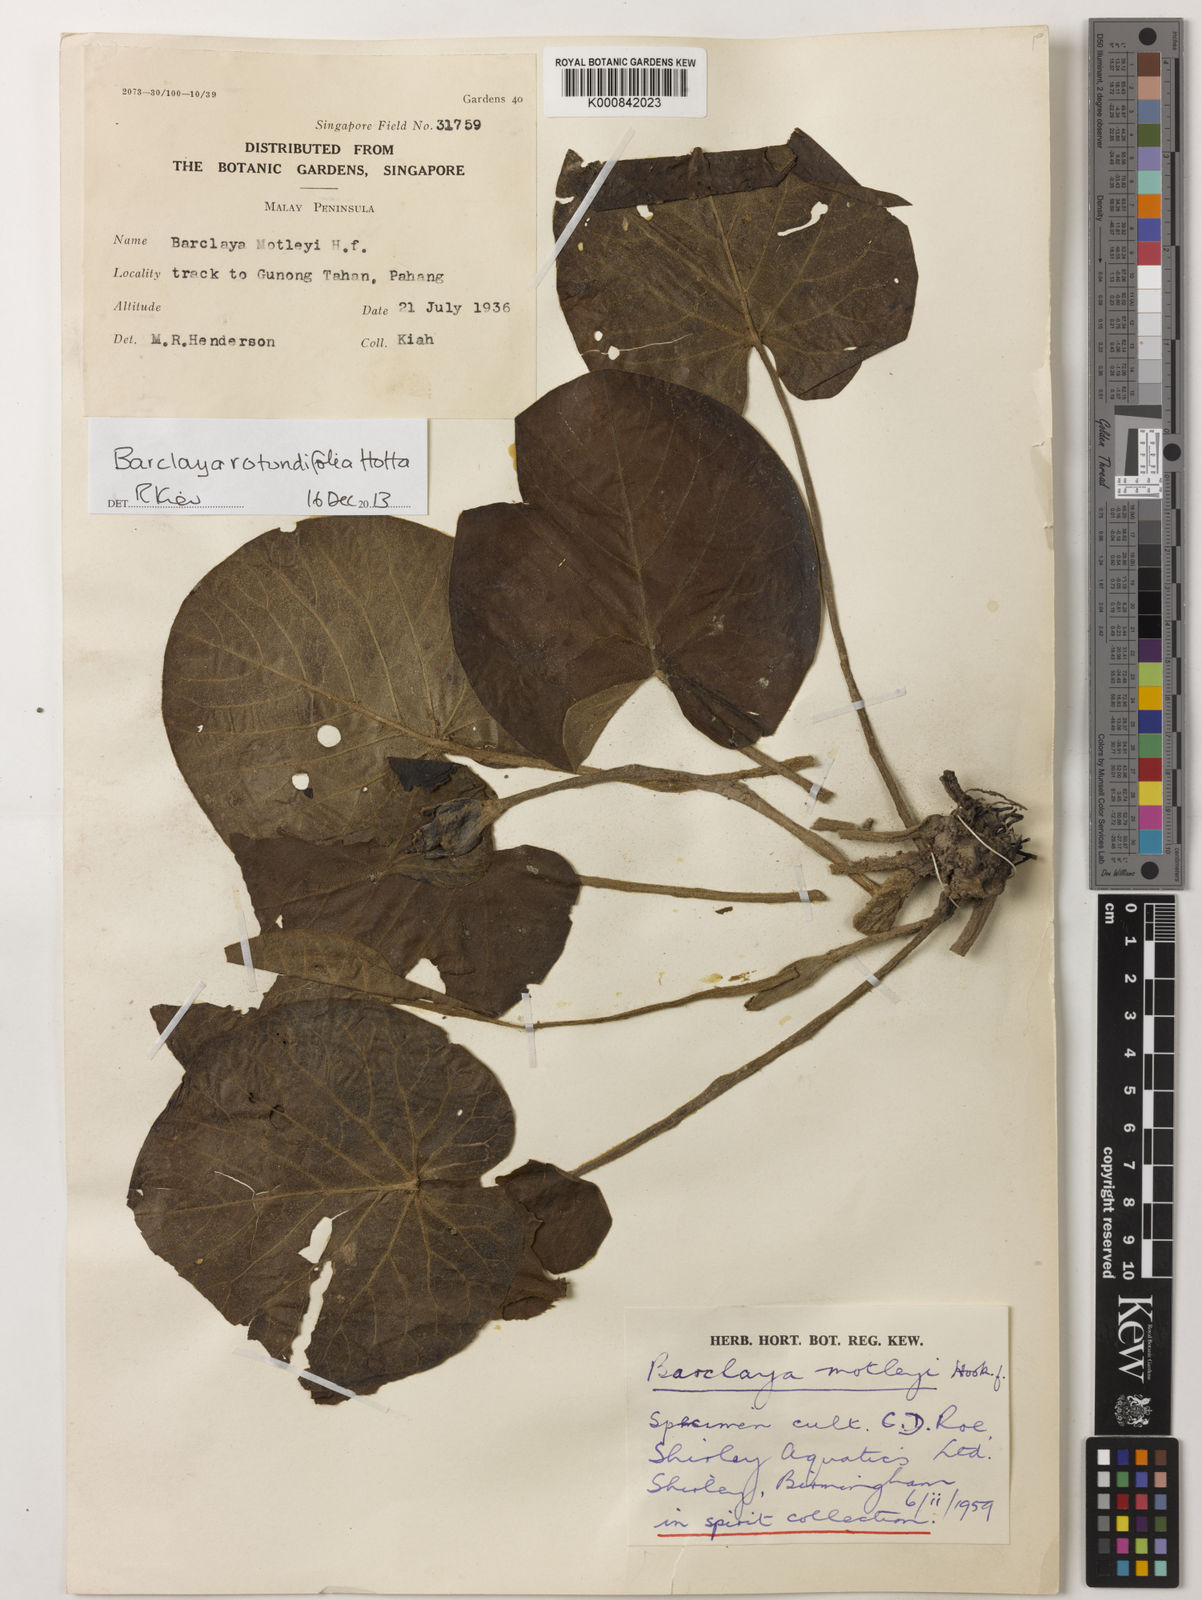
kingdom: Plantae
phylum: Tracheophyta
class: Magnoliopsida
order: Nymphaeales
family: Nymphaeaceae
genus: Barclaya
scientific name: Barclaya rotundifolia
